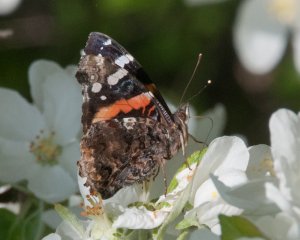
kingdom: Animalia
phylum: Arthropoda
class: Insecta
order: Lepidoptera
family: Nymphalidae
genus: Vanessa
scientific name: Vanessa atalanta
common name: Red Admiral
